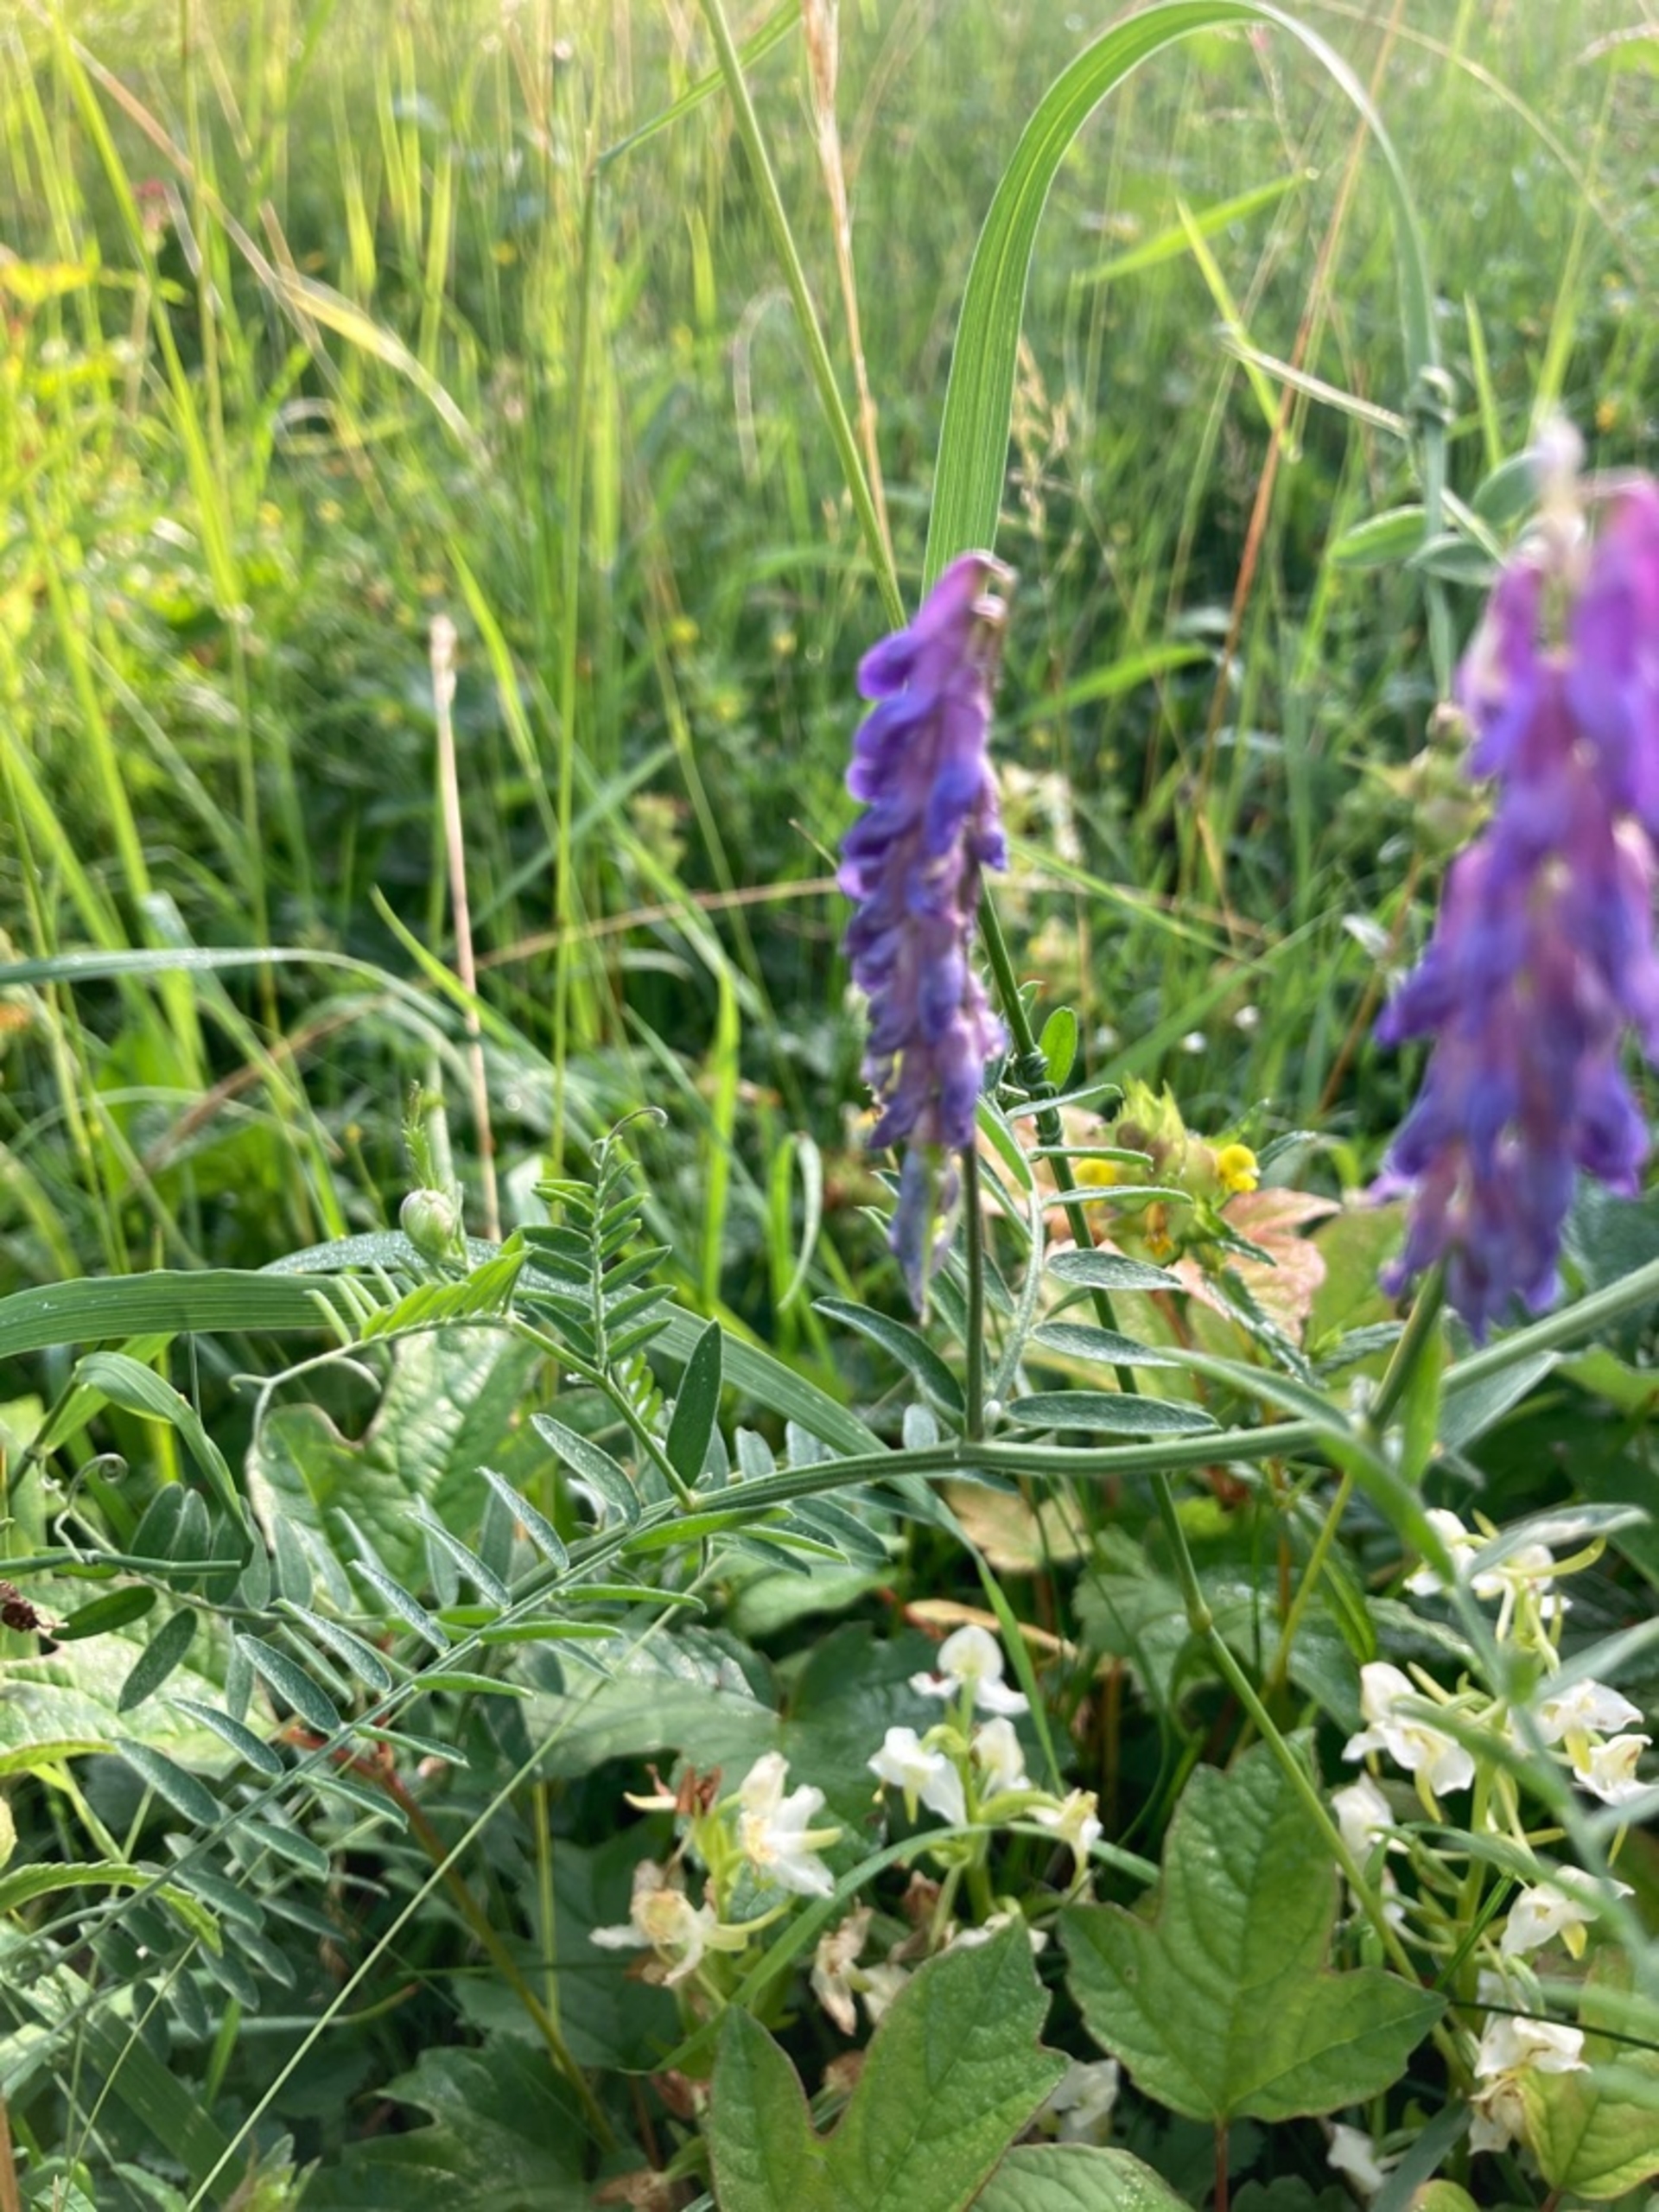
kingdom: Plantae
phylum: Tracheophyta
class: Magnoliopsida
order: Fabales
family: Fabaceae
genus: Vicia
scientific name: Vicia cracca
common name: Muse-vikke
